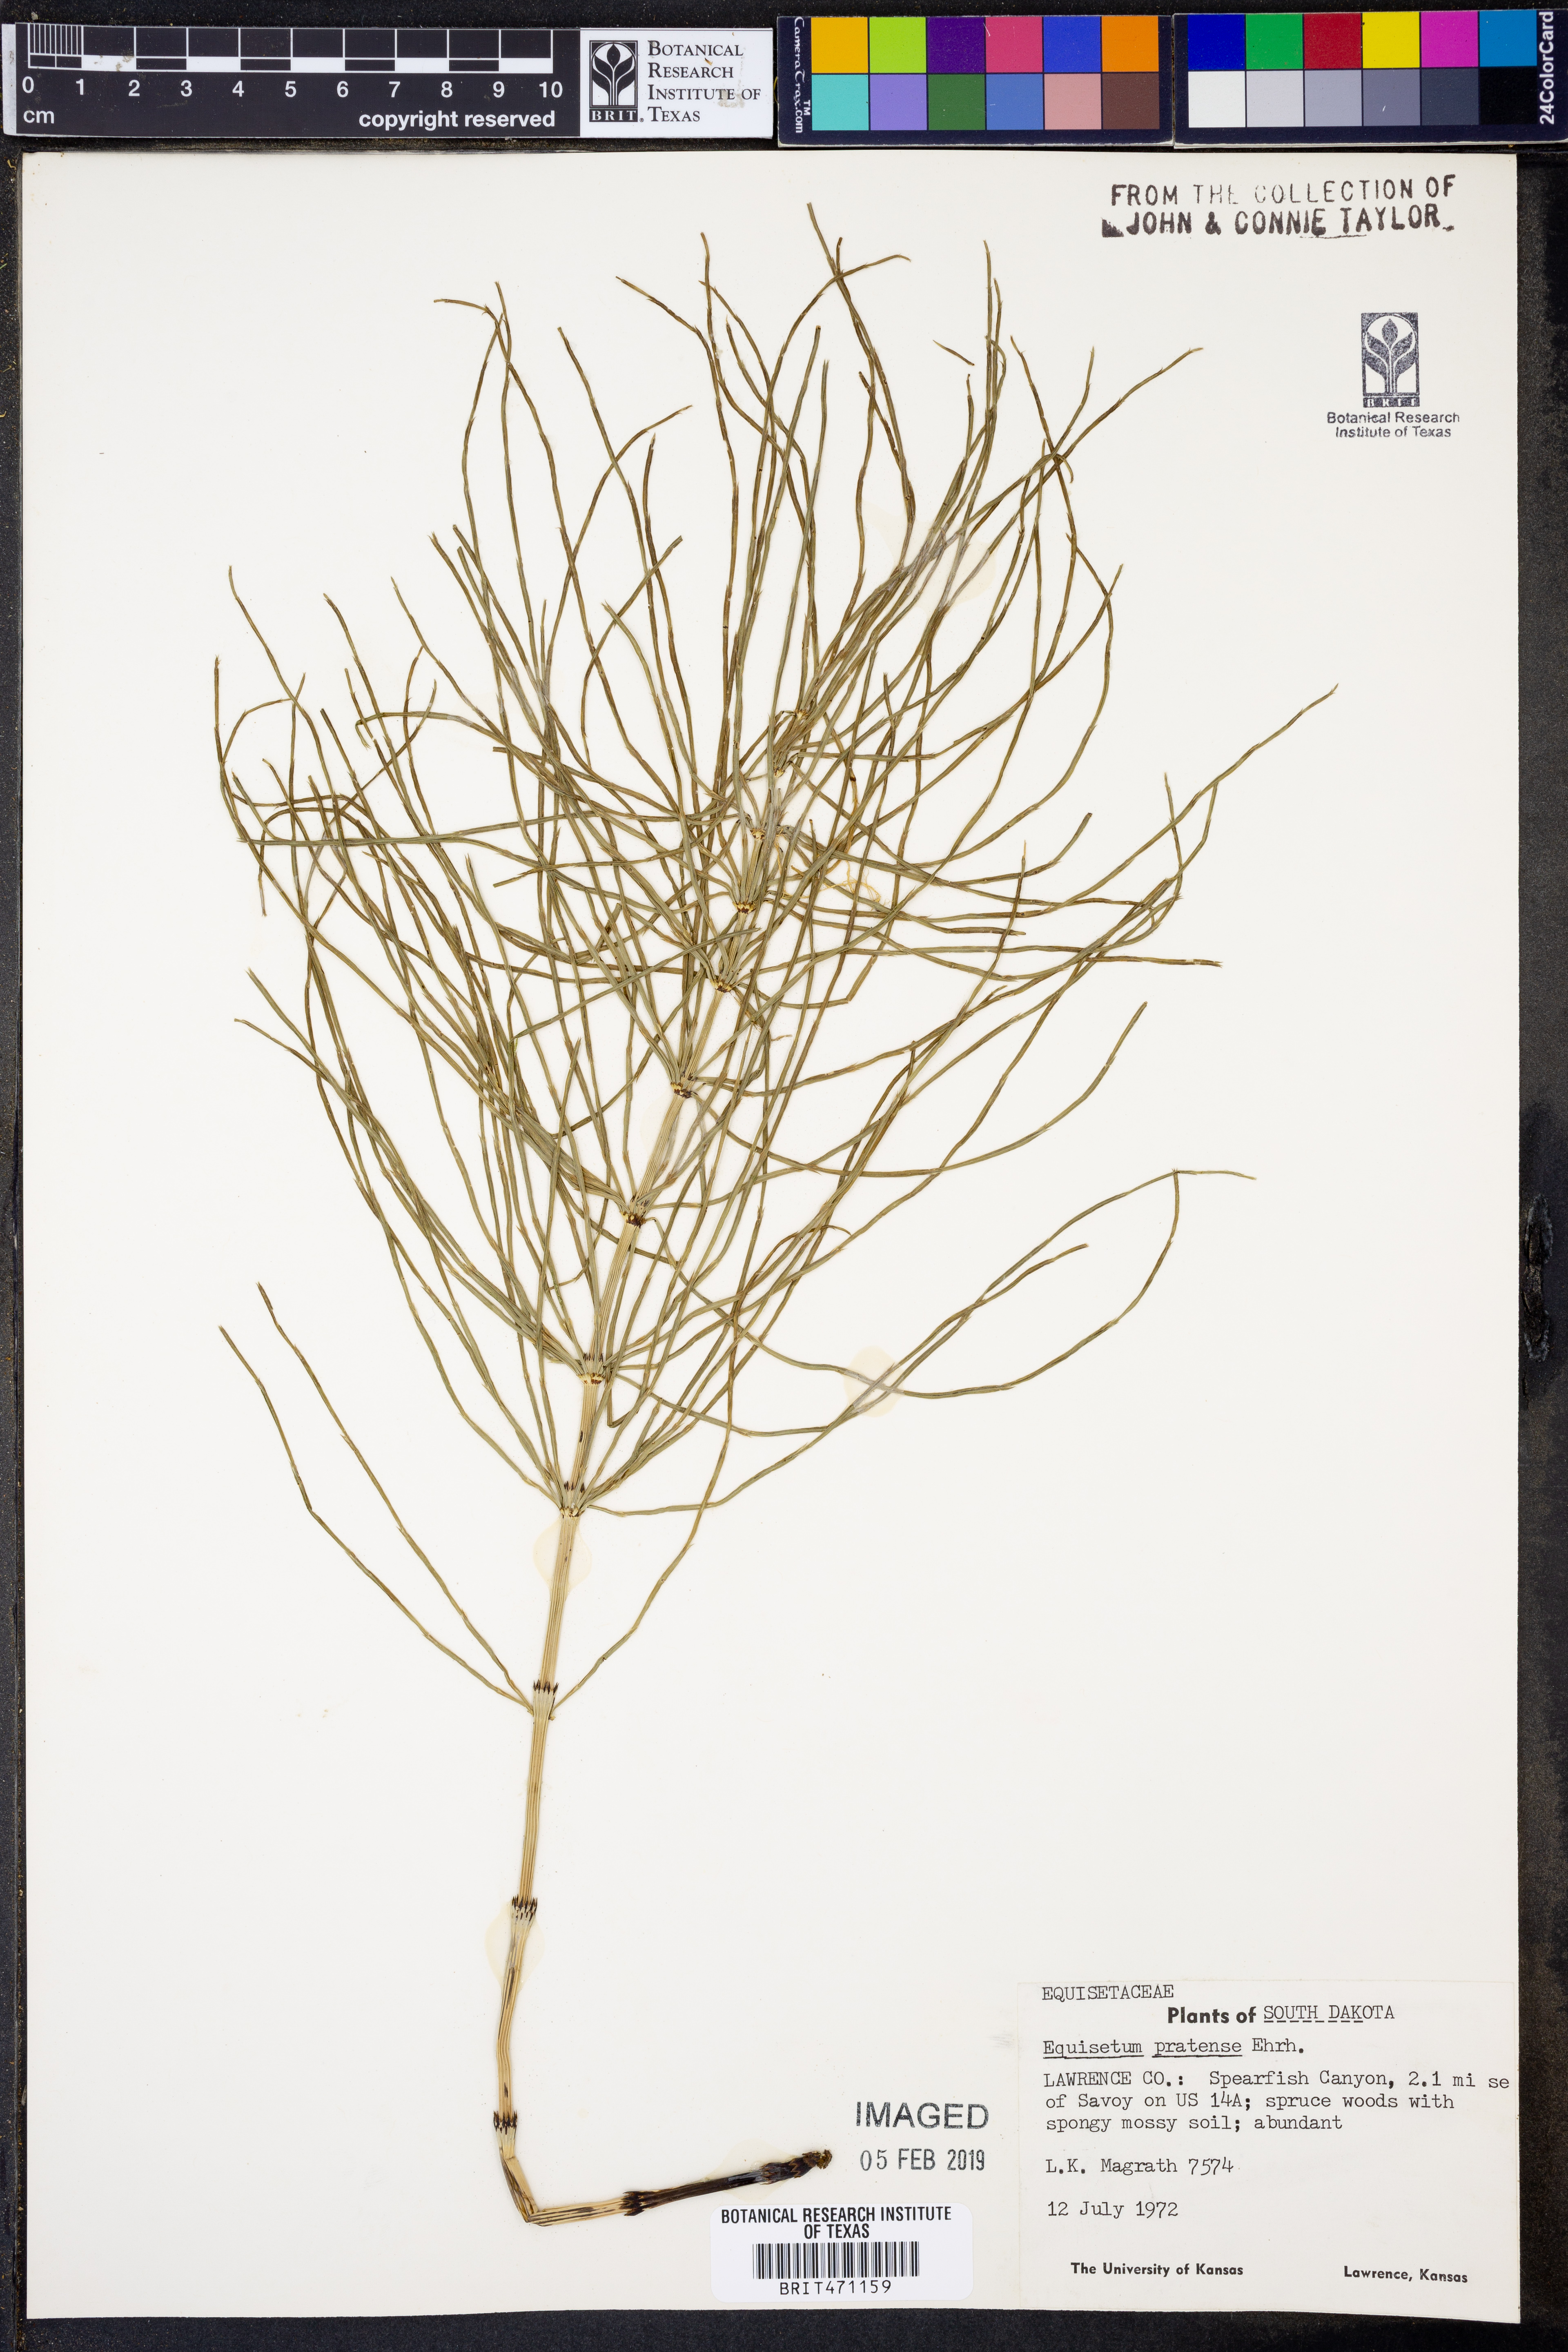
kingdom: Plantae
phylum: Tracheophyta
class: Polypodiopsida
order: Equisetales
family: Equisetaceae
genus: Equisetum
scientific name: Equisetum pratense
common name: Meadow horsetail
